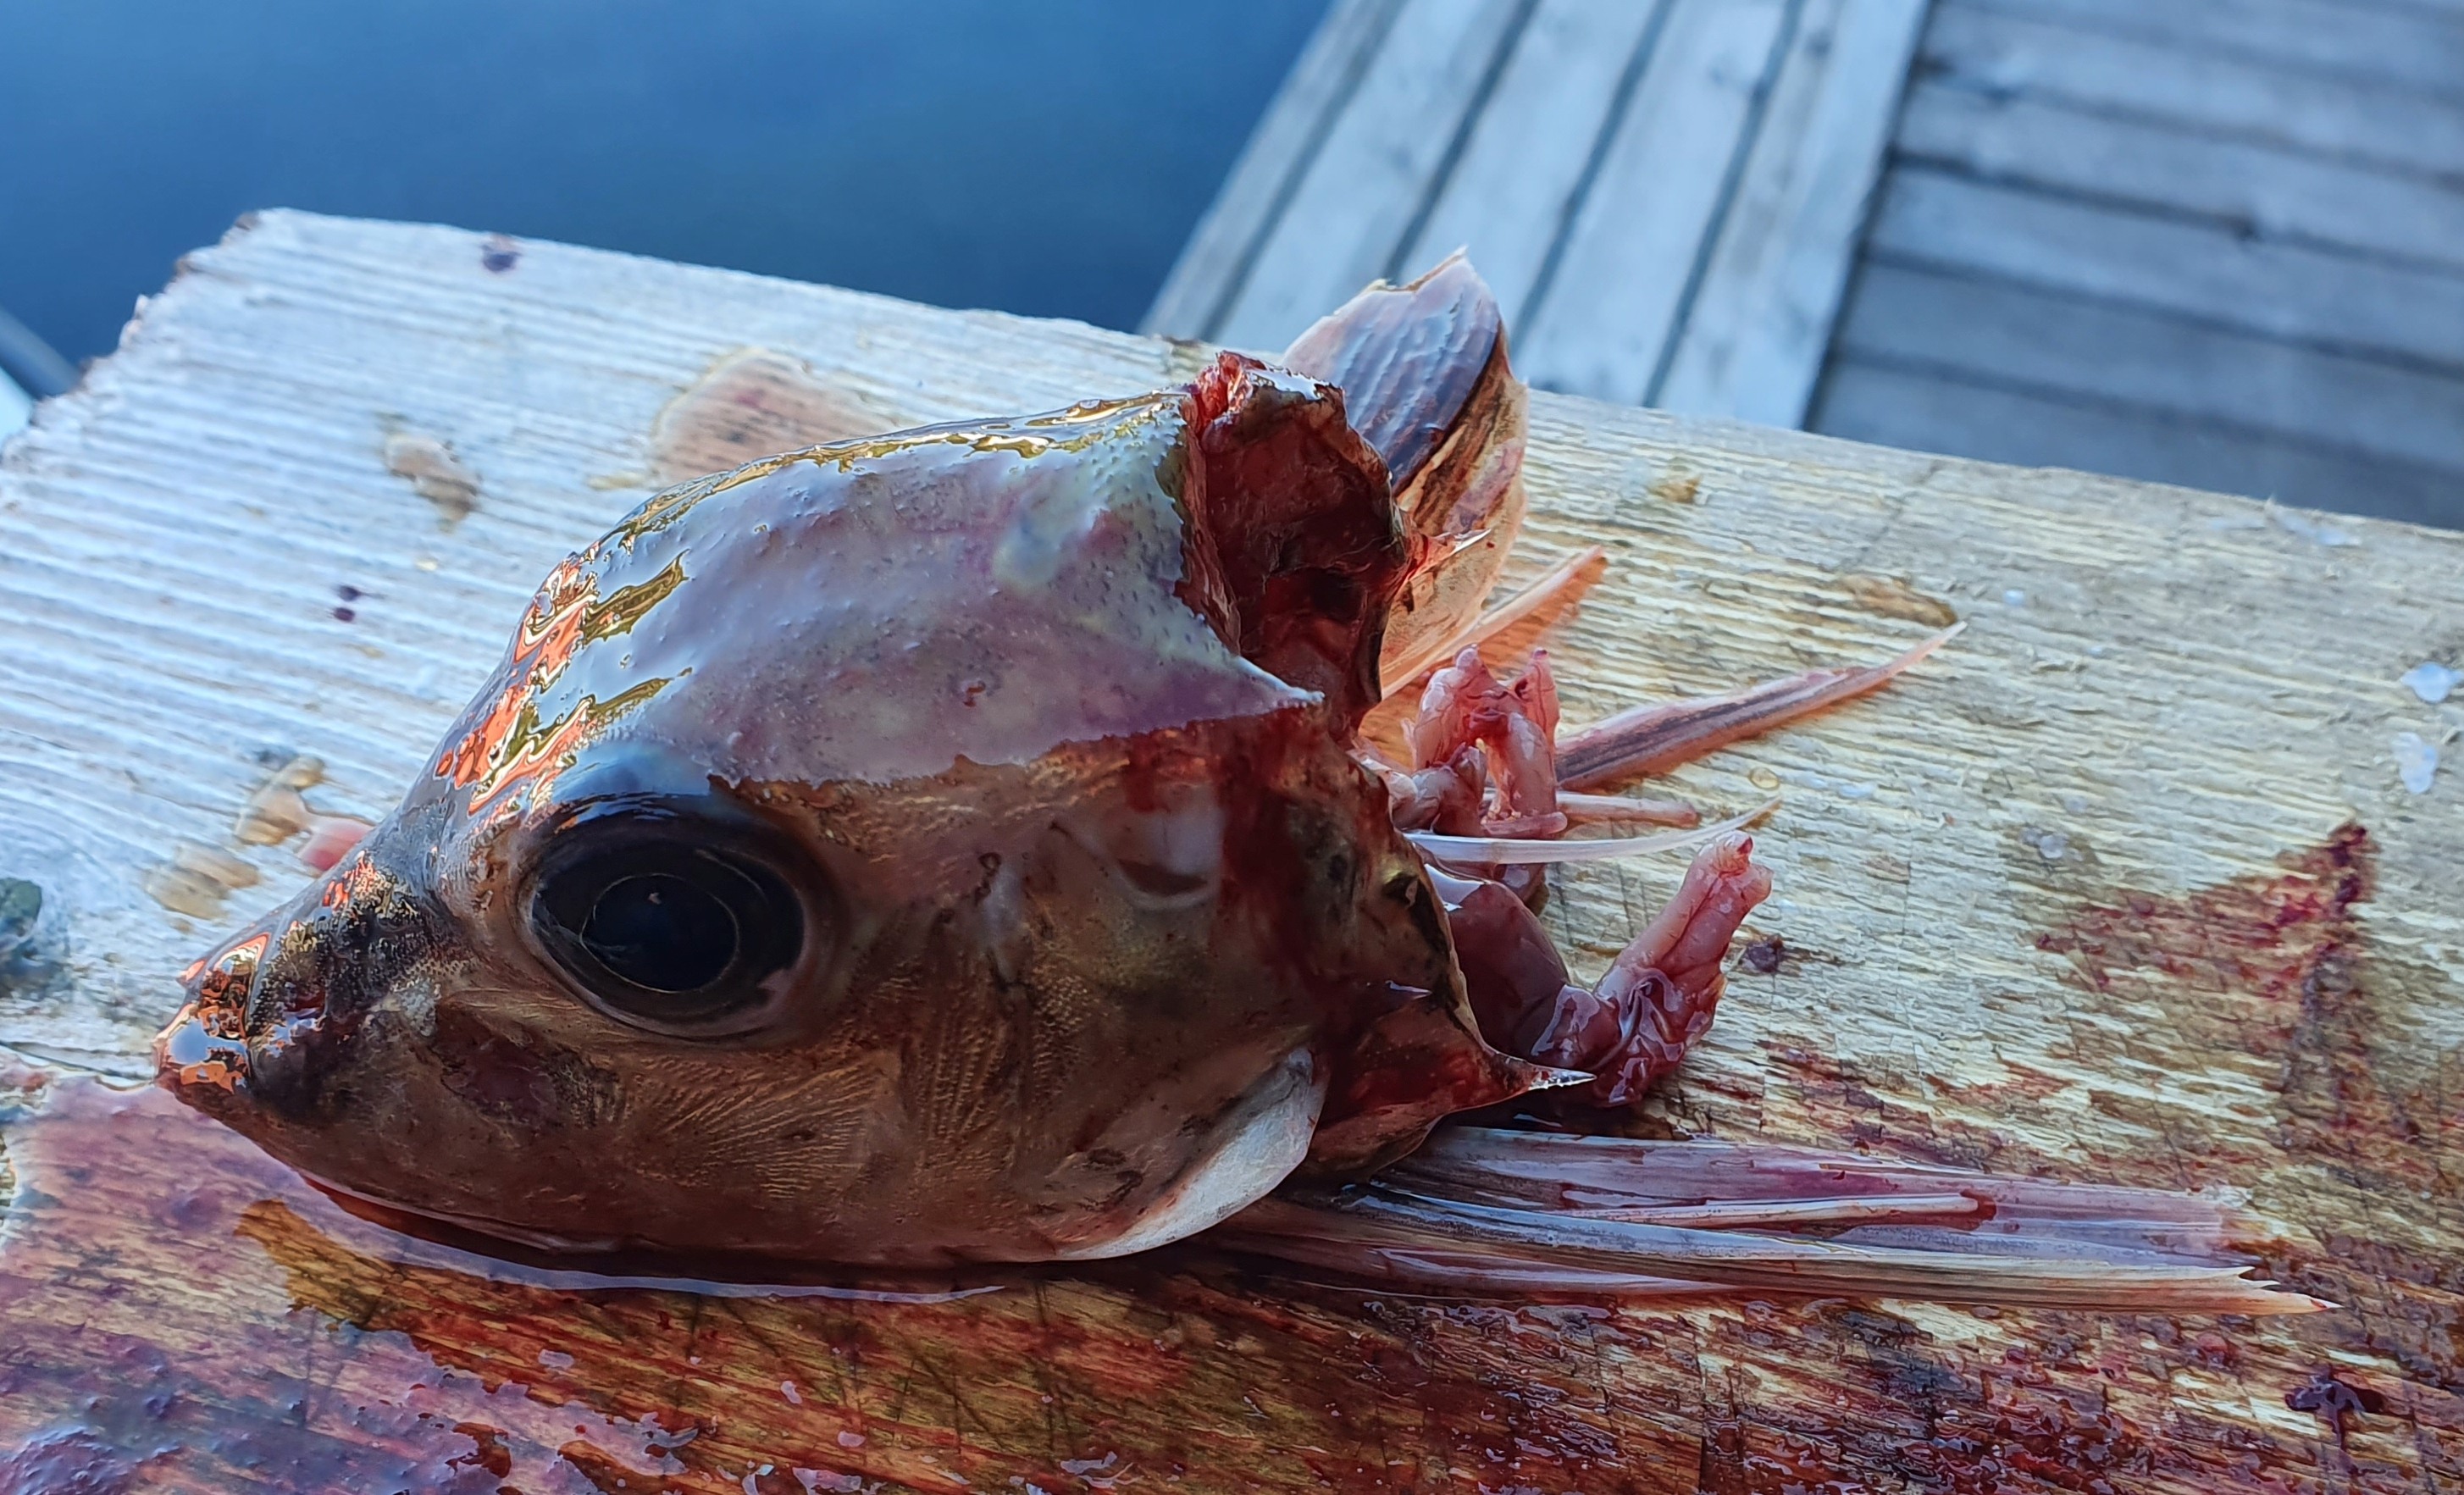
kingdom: Animalia
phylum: Chordata
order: Scorpaeniformes
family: Triglidae
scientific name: Triglidae
